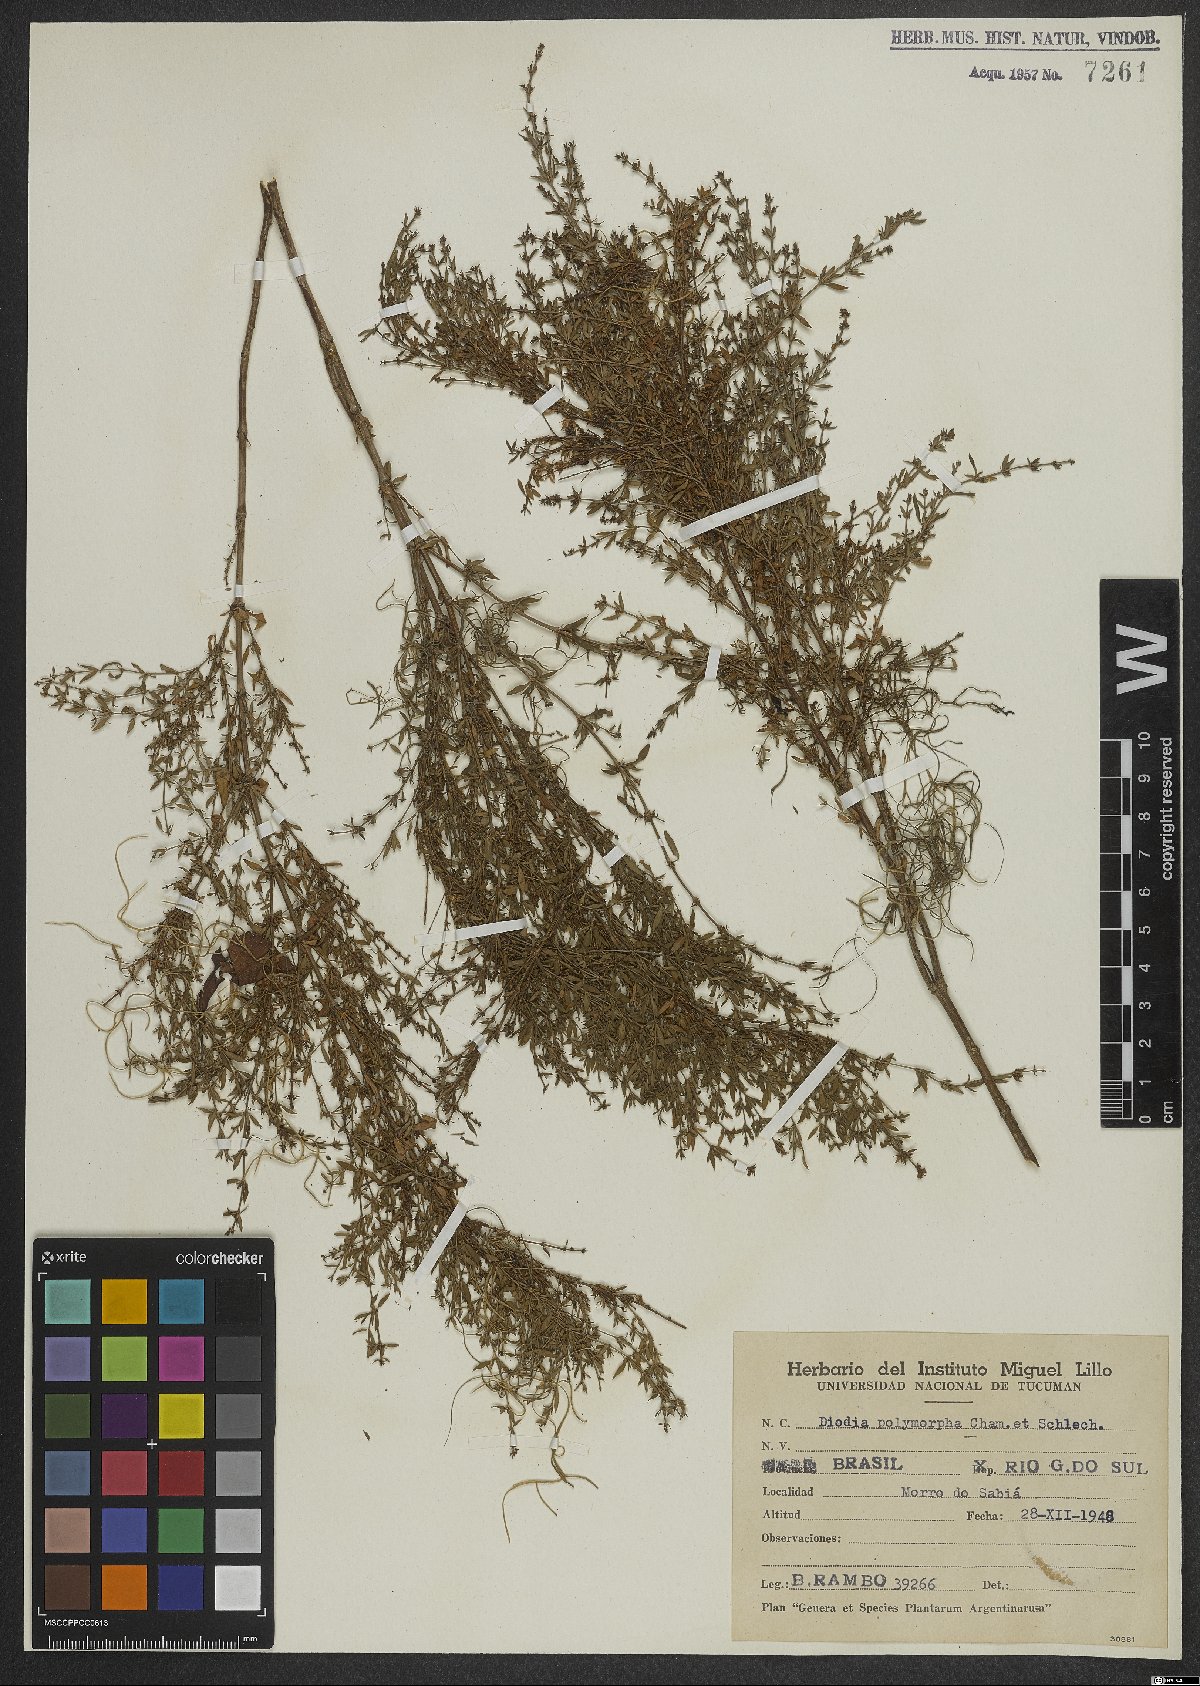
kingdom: Plantae
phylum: Tracheophyta
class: Magnoliopsida
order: Gentianales
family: Rubiaceae
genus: Galianthe
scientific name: Galianthe brasiliensis
